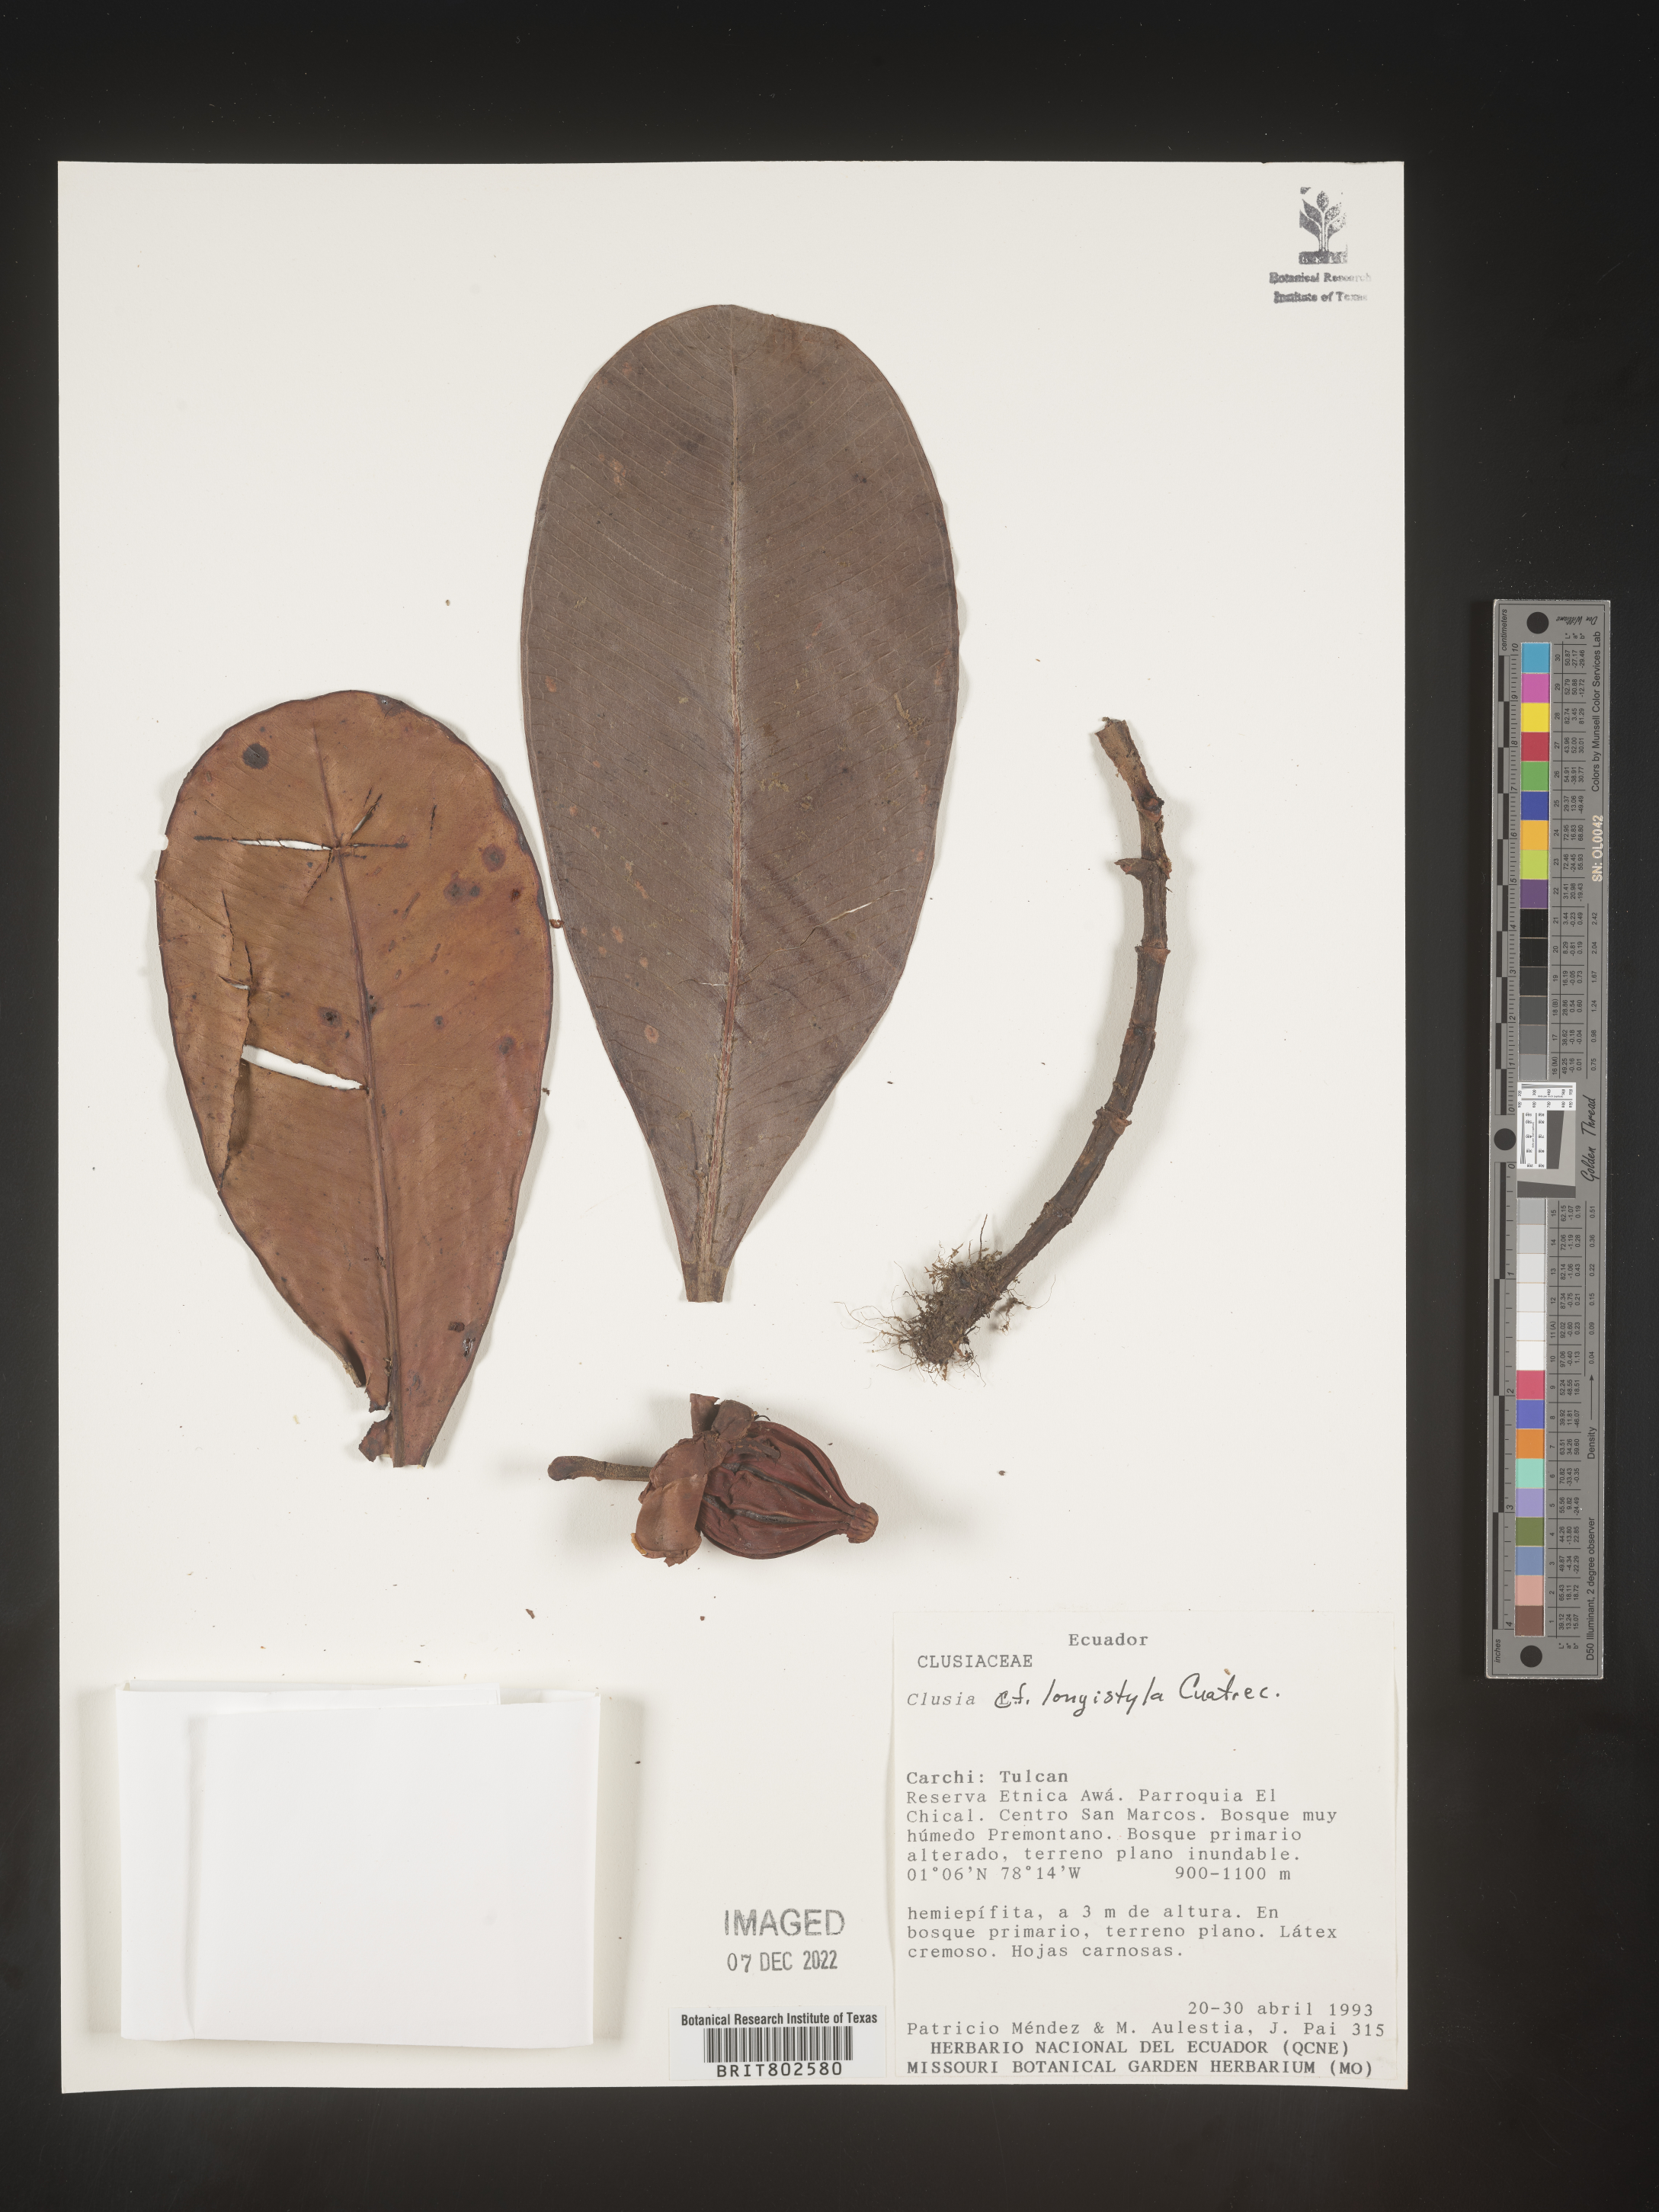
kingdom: Plantae
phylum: Tracheophyta
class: Magnoliopsida
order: Malpighiales
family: Clusiaceae
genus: Clusia
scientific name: Clusia rotundata
